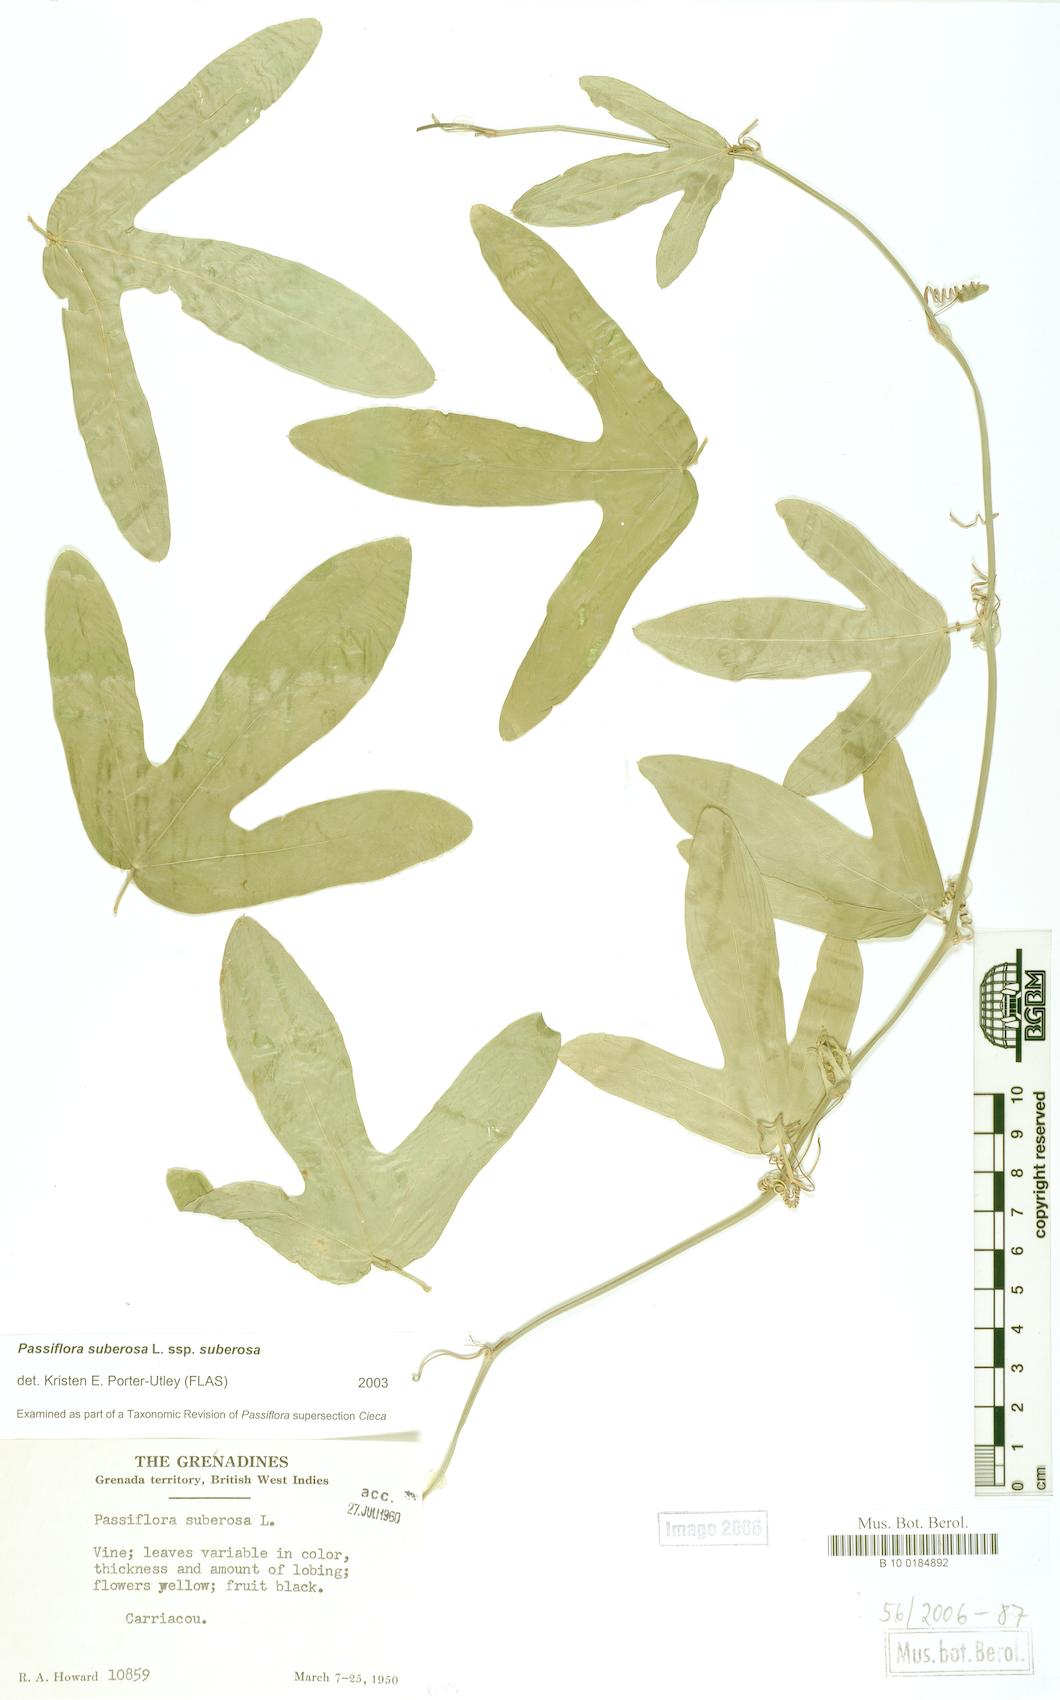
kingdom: Plantae
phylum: Tracheophyta
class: Magnoliopsida
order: Malpighiales
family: Passifloraceae
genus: Passiflora
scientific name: Passiflora suberosa
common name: Wild passionfruit
